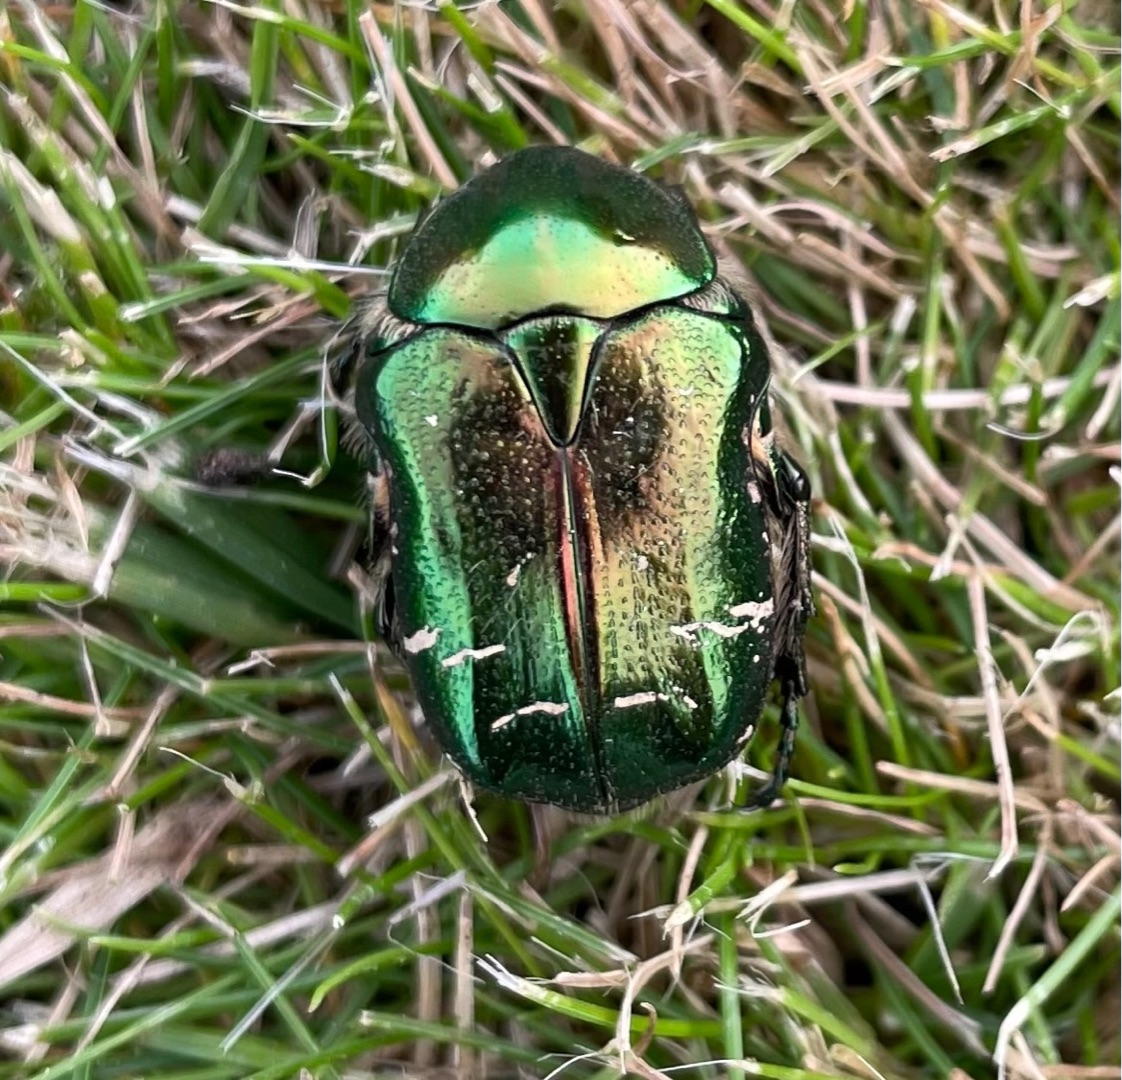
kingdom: Animalia
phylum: Arthropoda
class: Insecta
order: Coleoptera
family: Scarabaeidae
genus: Cetonia
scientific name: Cetonia aurata
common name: Grøn guldbasse
